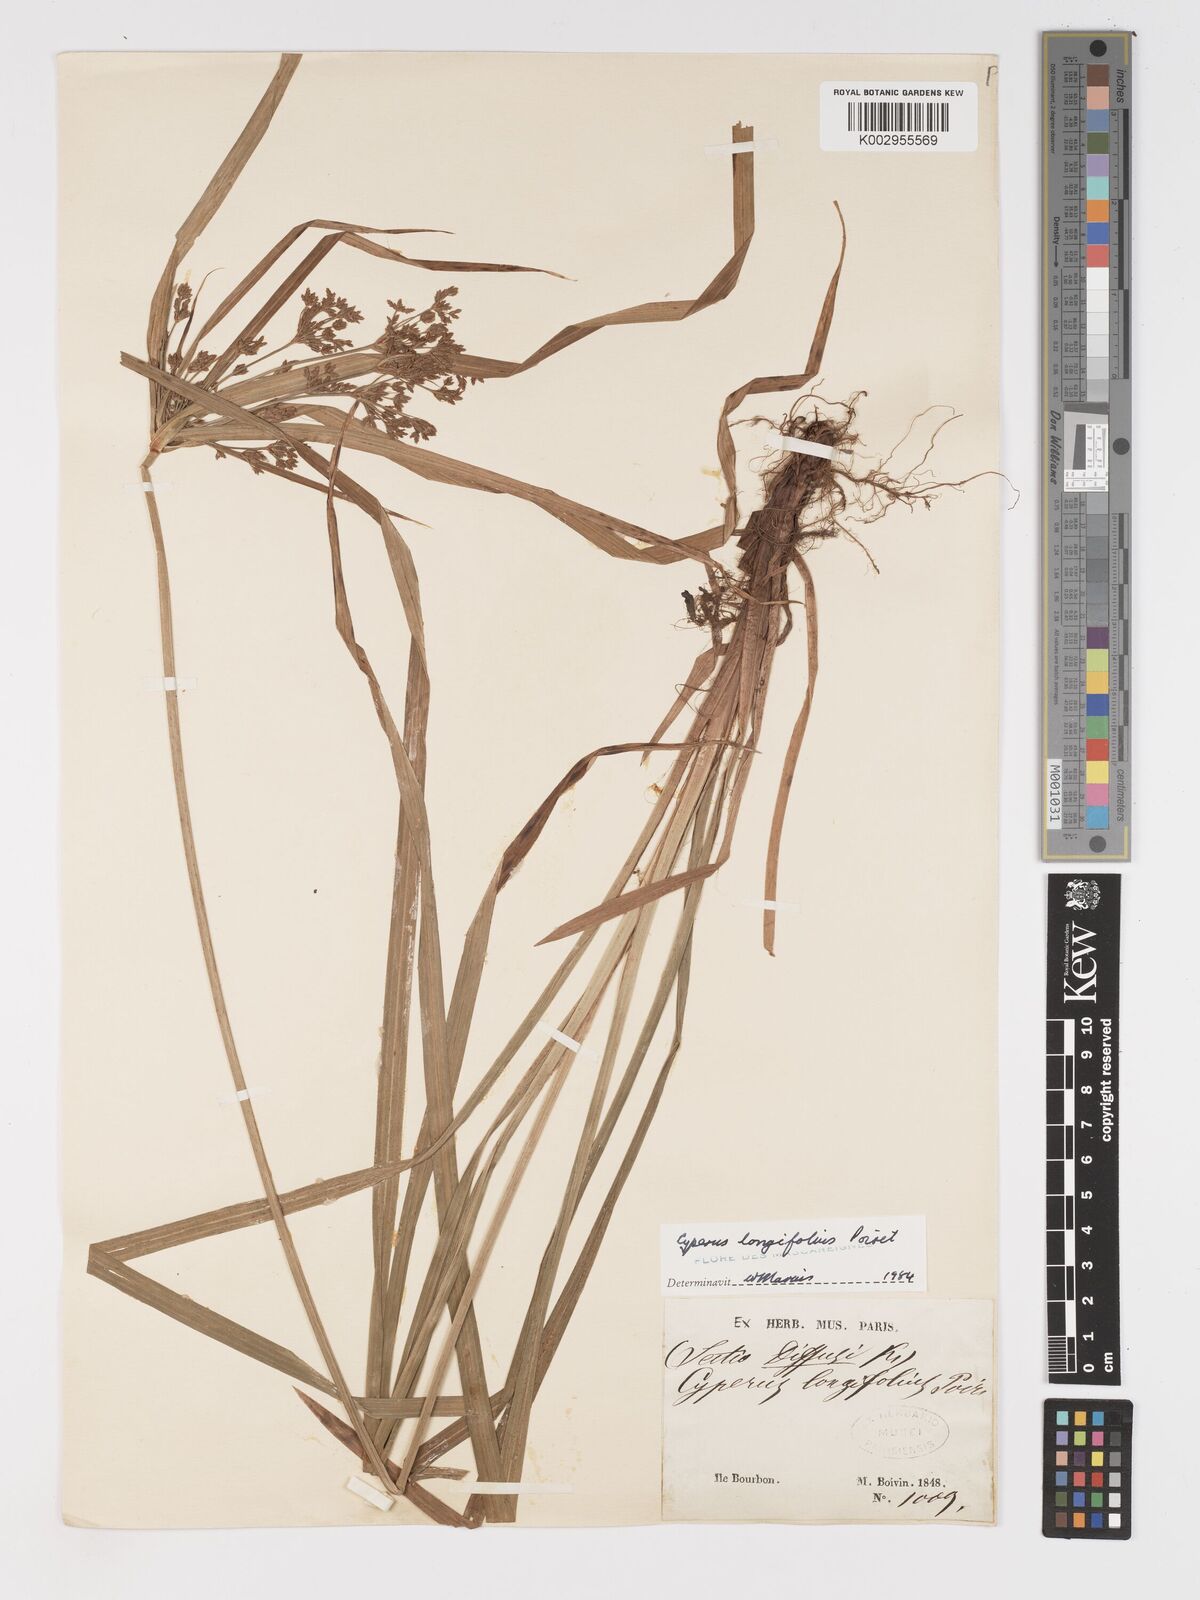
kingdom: Plantae
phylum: Tracheophyta
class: Liliopsida
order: Poales
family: Cyperaceae
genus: Cyperus
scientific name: Cyperus longifolius
